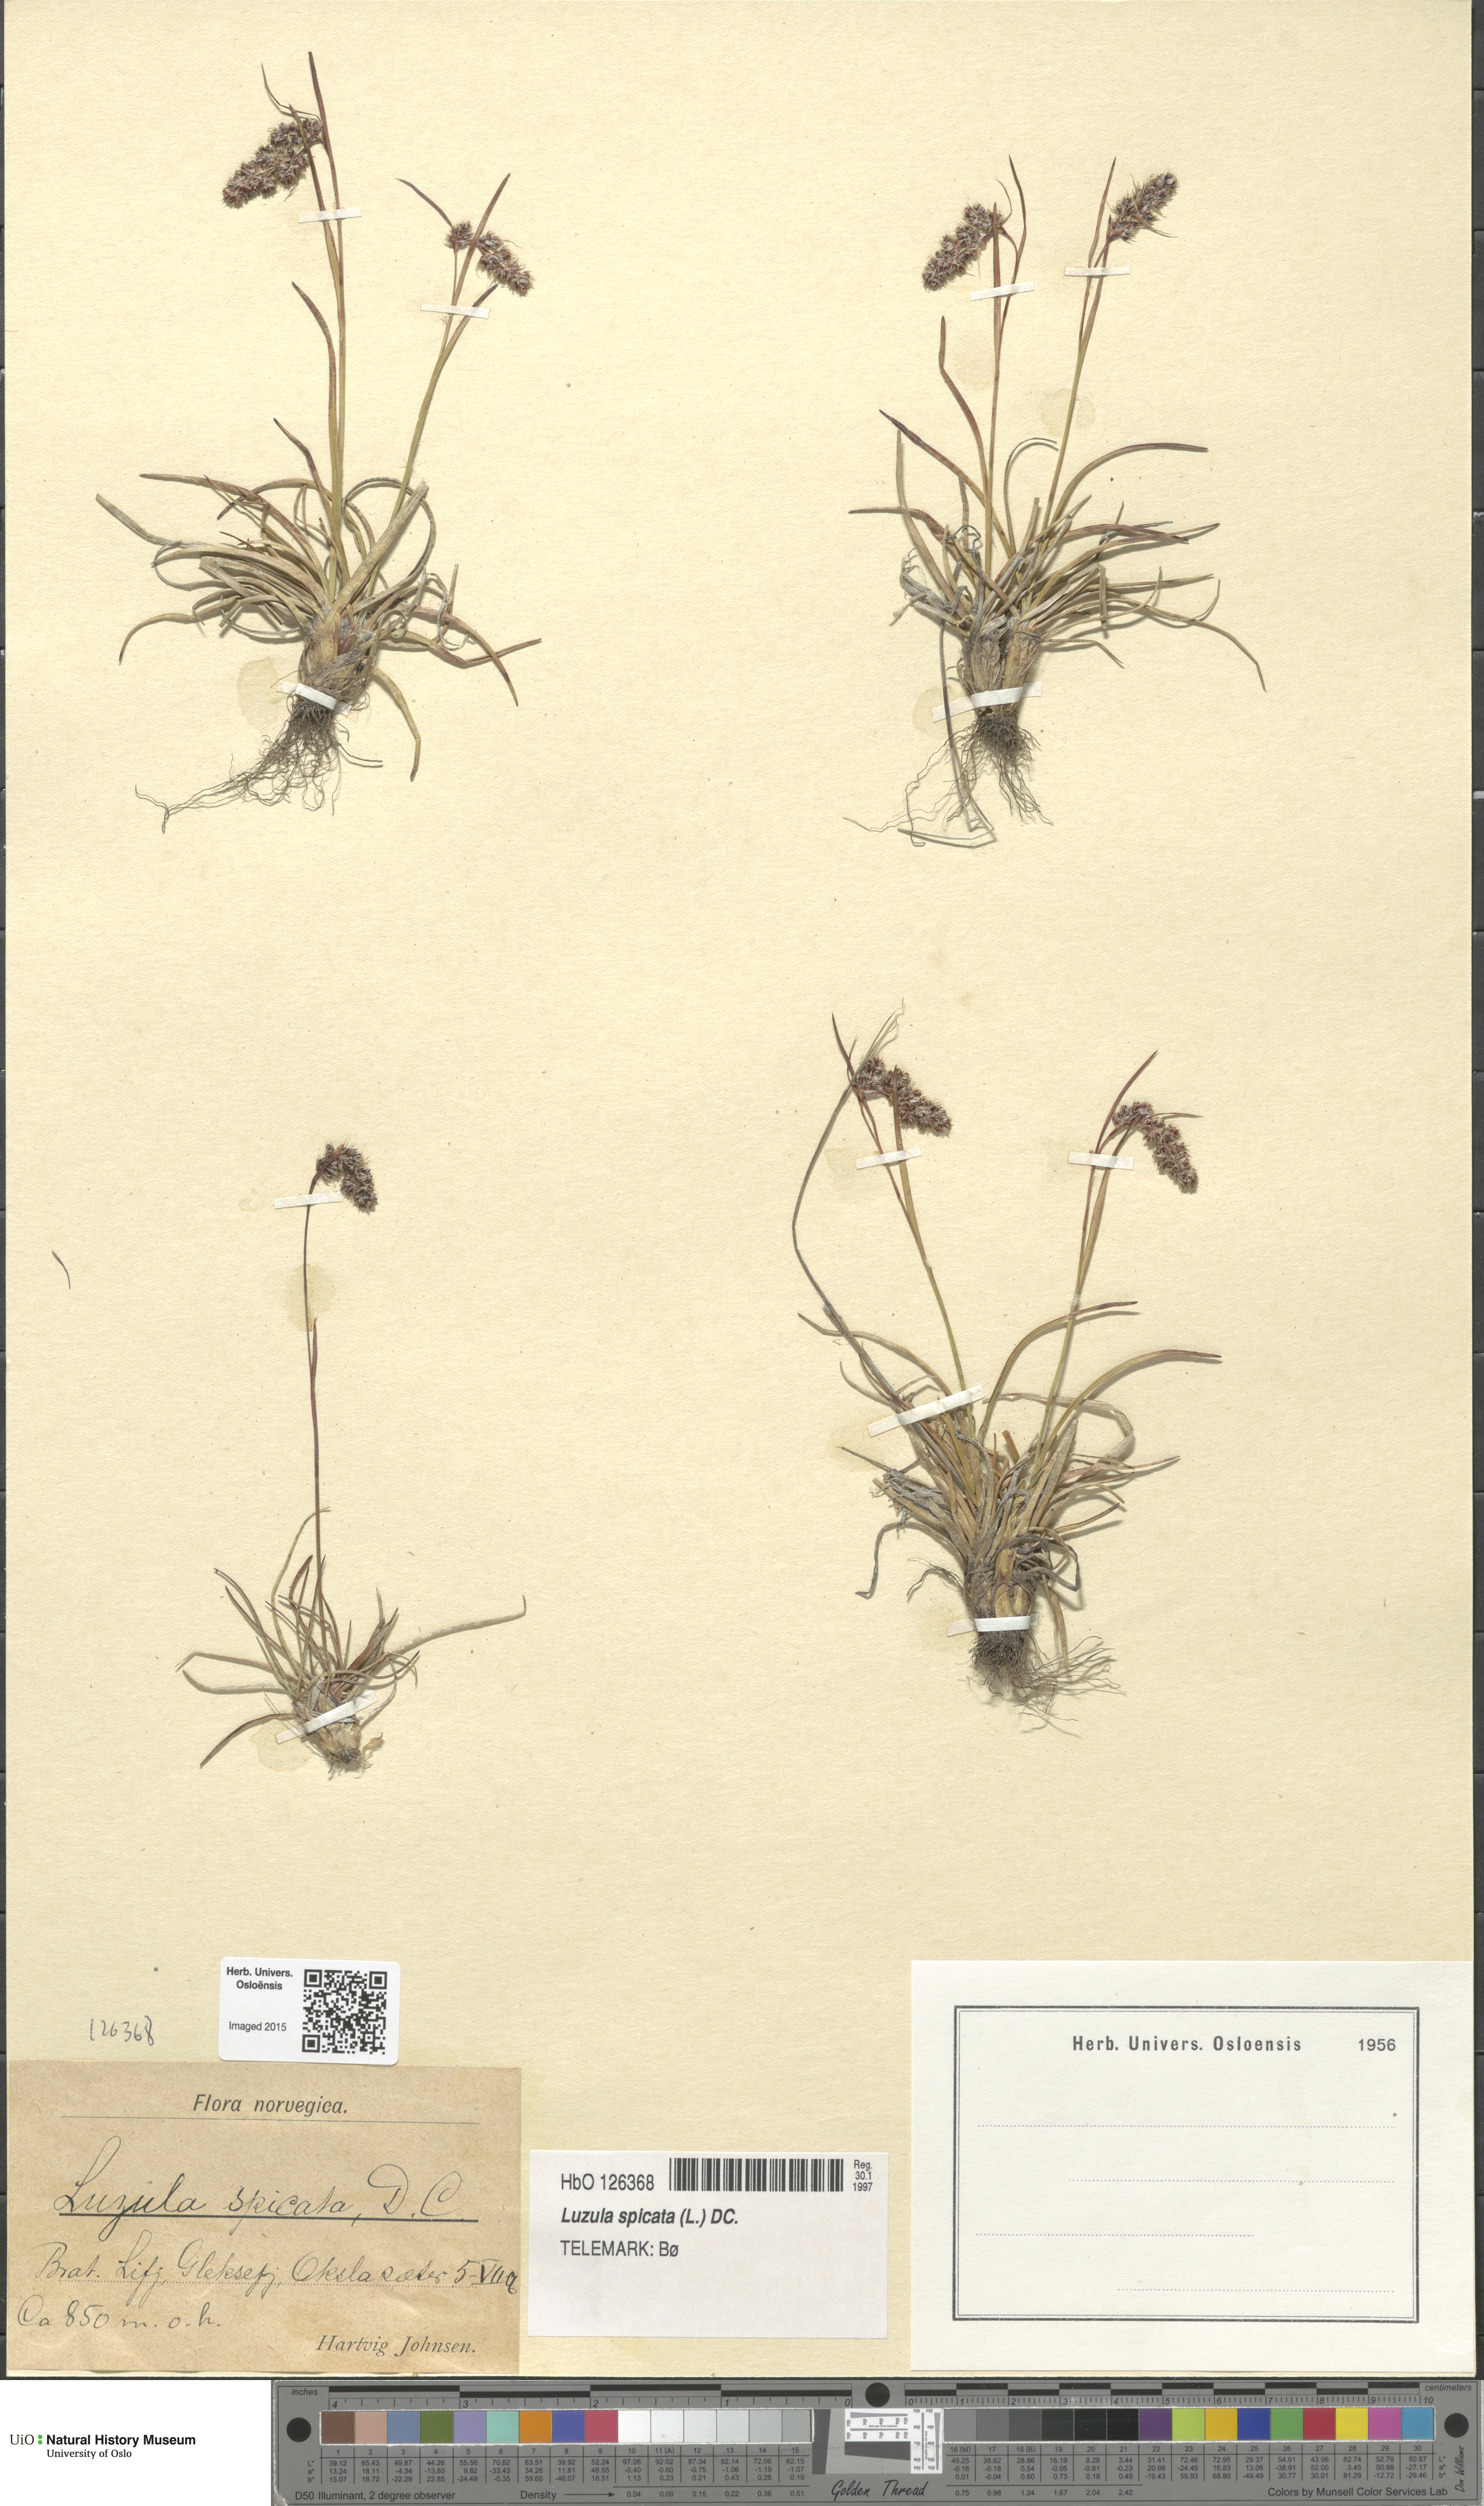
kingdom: Plantae
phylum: Tracheophyta
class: Liliopsida
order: Poales
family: Juncaceae
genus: Luzula
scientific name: Luzula spicata
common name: Spiked wood-rush
